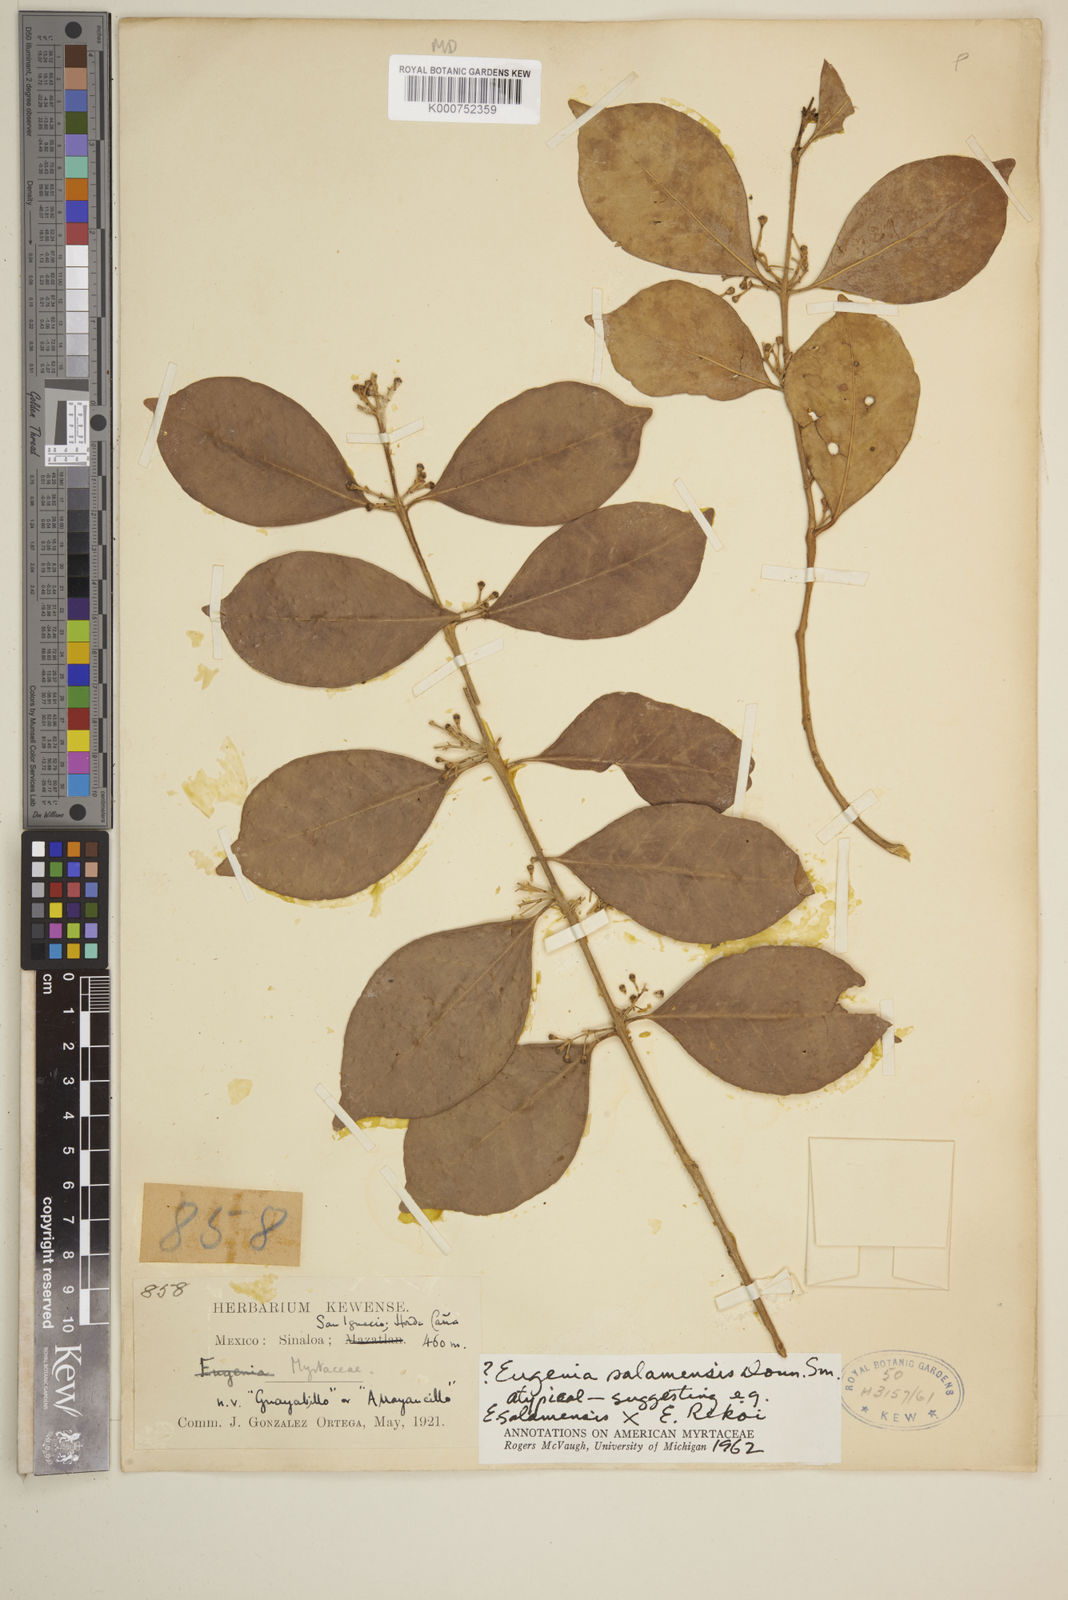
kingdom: Plantae
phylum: Tracheophyta
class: Magnoliopsida
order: Myrtales
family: Myrtaceae
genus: Eugenia
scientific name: Eugenia salamensis
